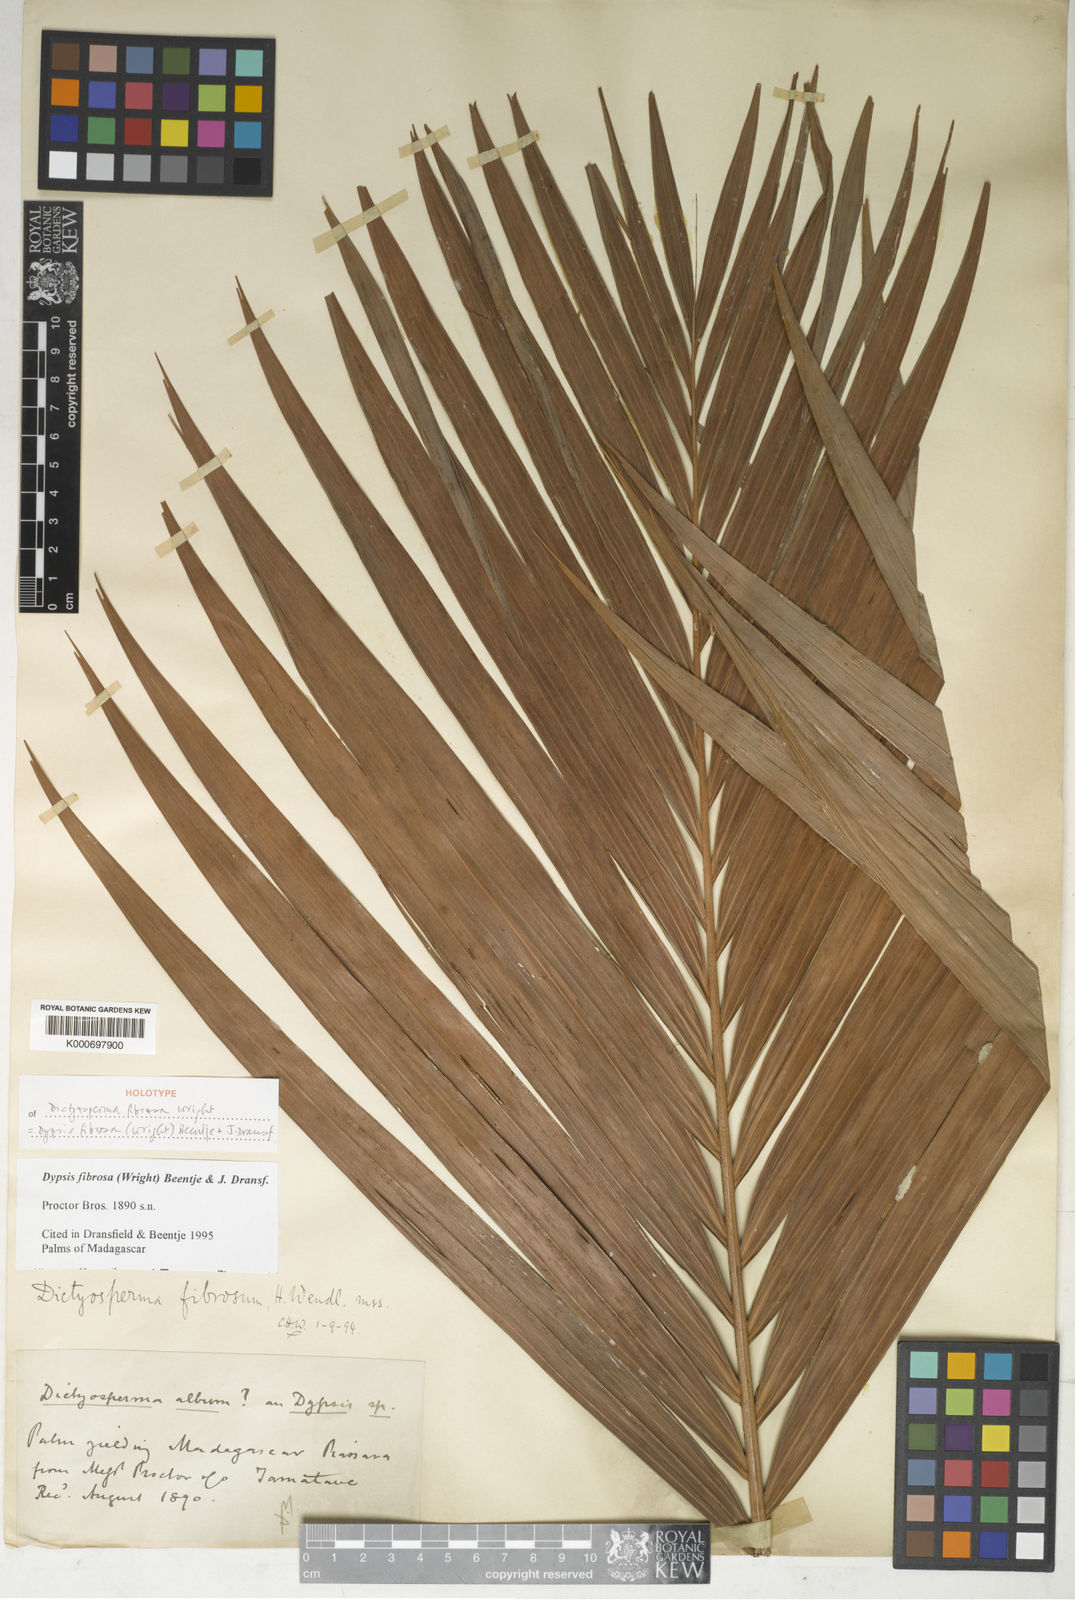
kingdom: Plantae
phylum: Tracheophyta
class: Liliopsida
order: Arecales
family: Arecaceae
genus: Dypsis
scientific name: Dypsis fibrosa
